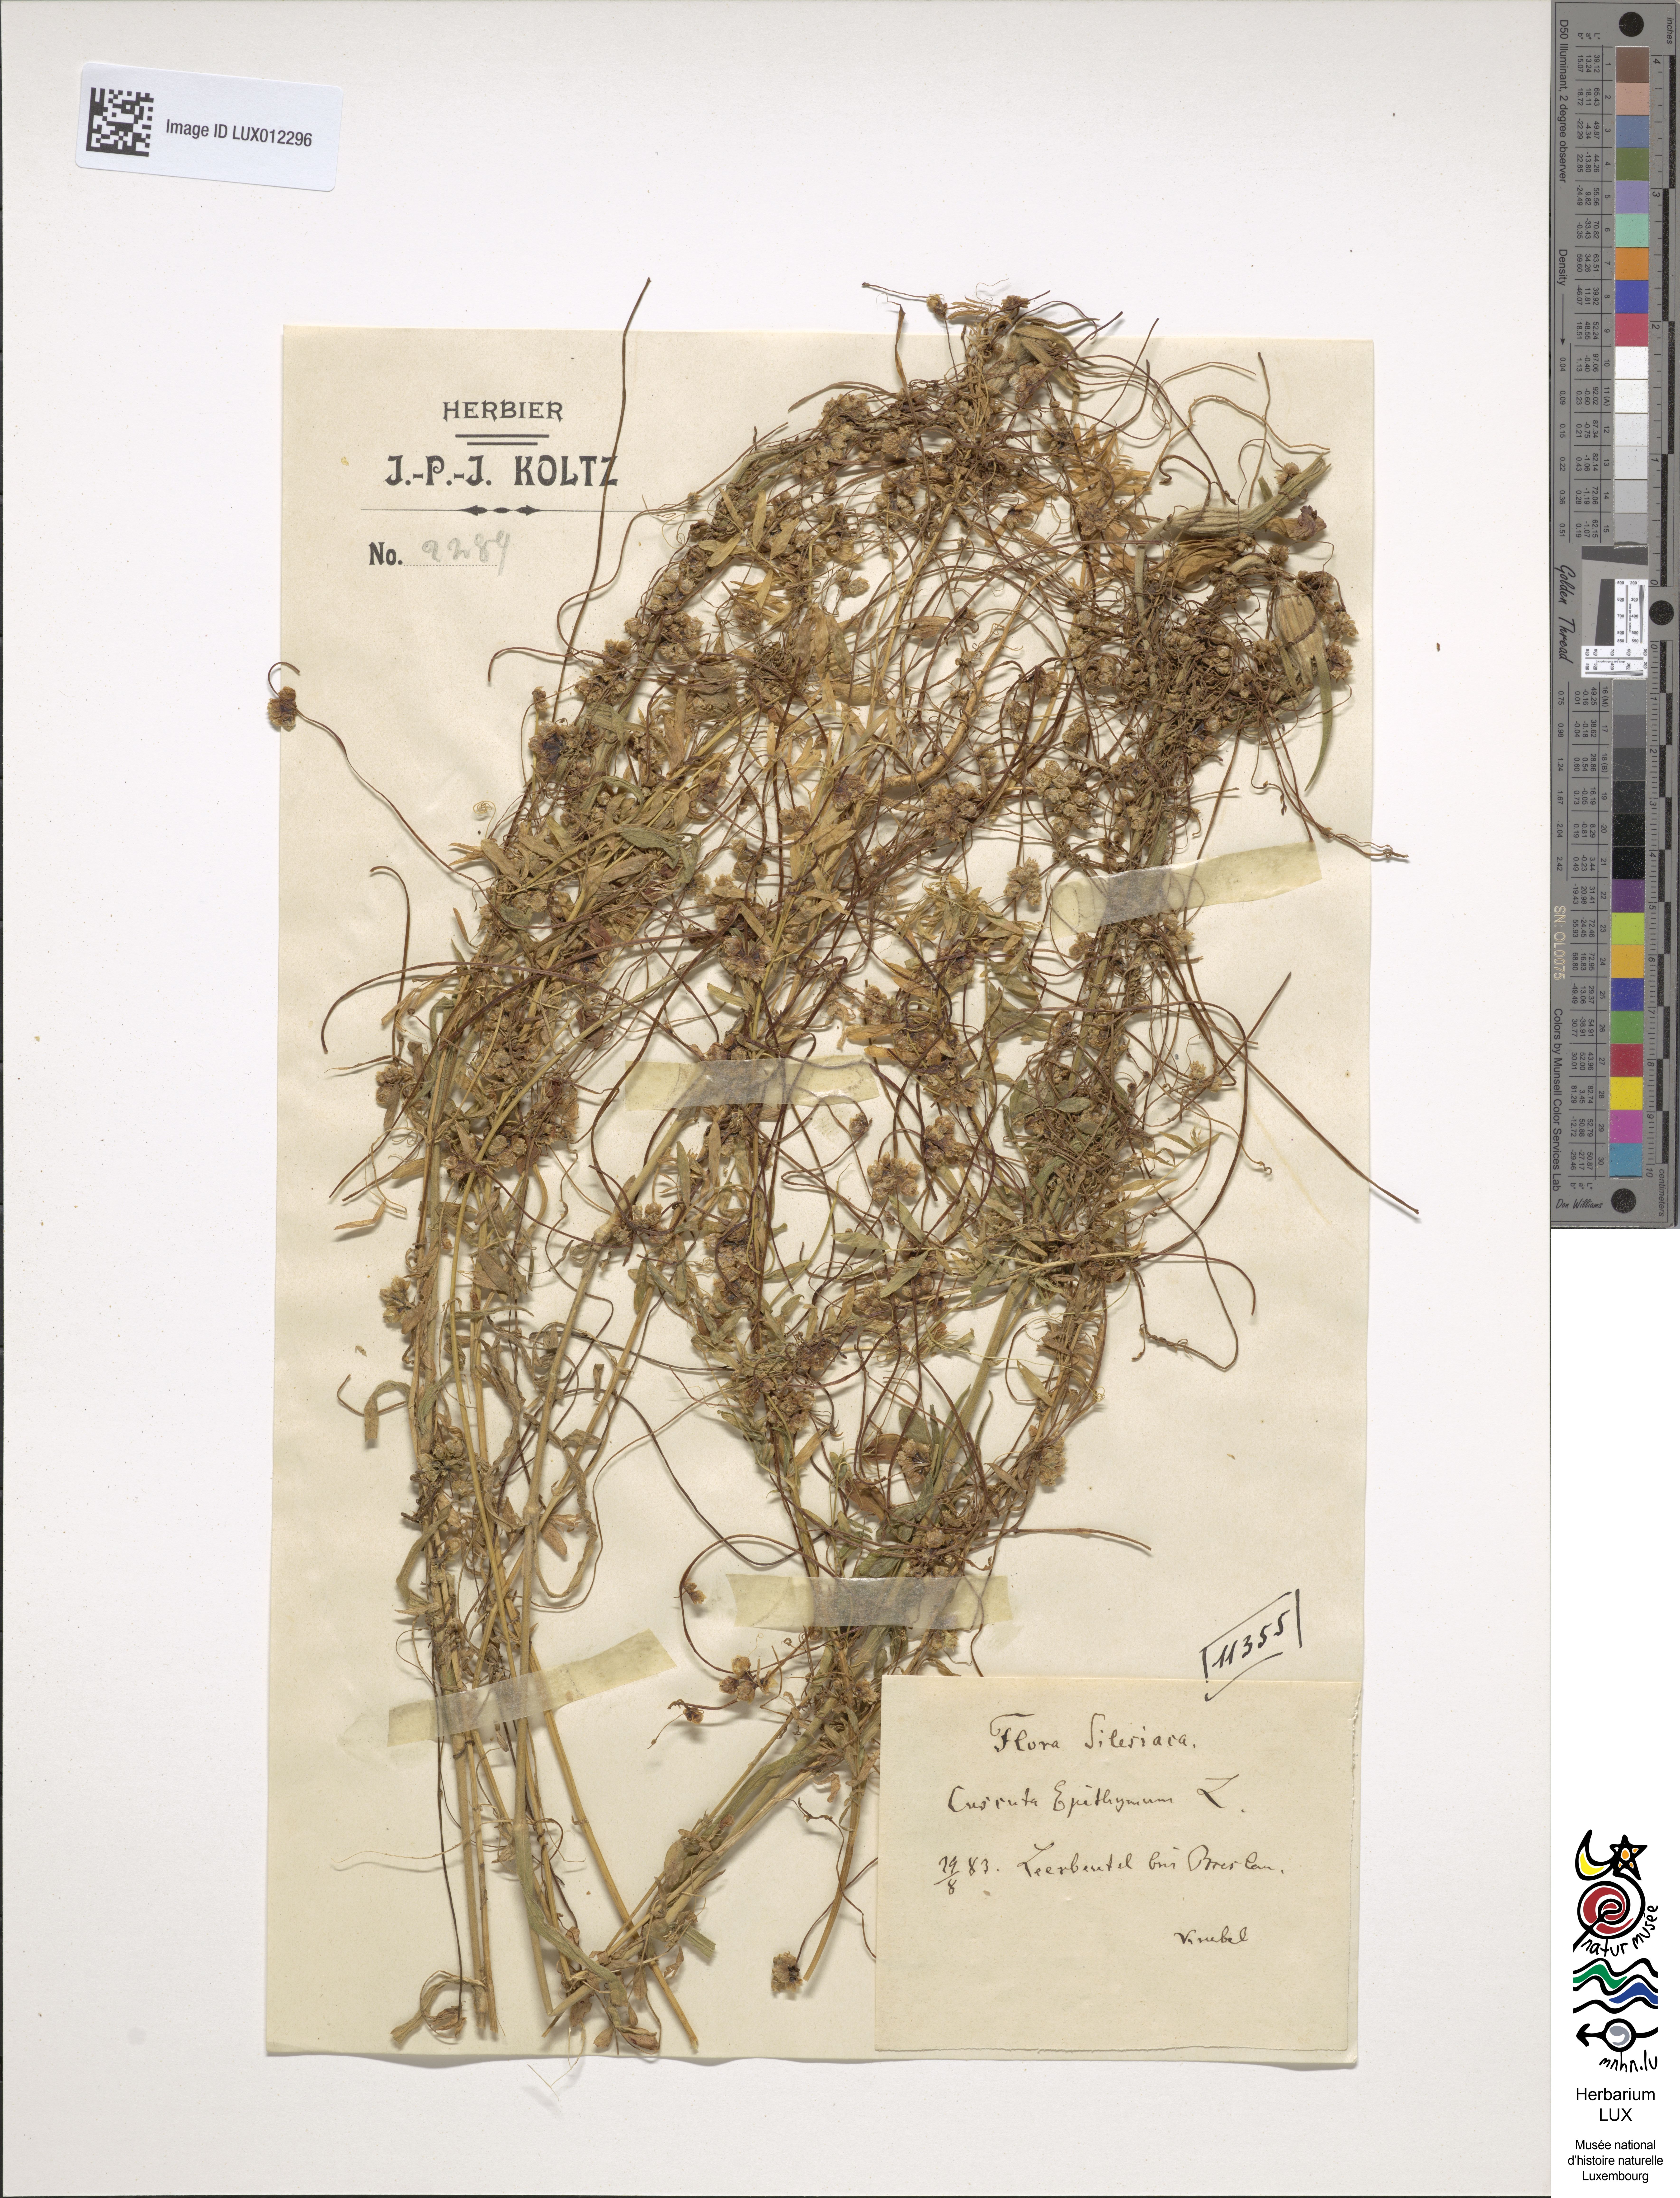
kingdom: Plantae
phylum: Tracheophyta
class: Magnoliopsida
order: Solanales
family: Convolvulaceae
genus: Cuscuta
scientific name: Cuscuta epithymum
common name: Clover dodder
